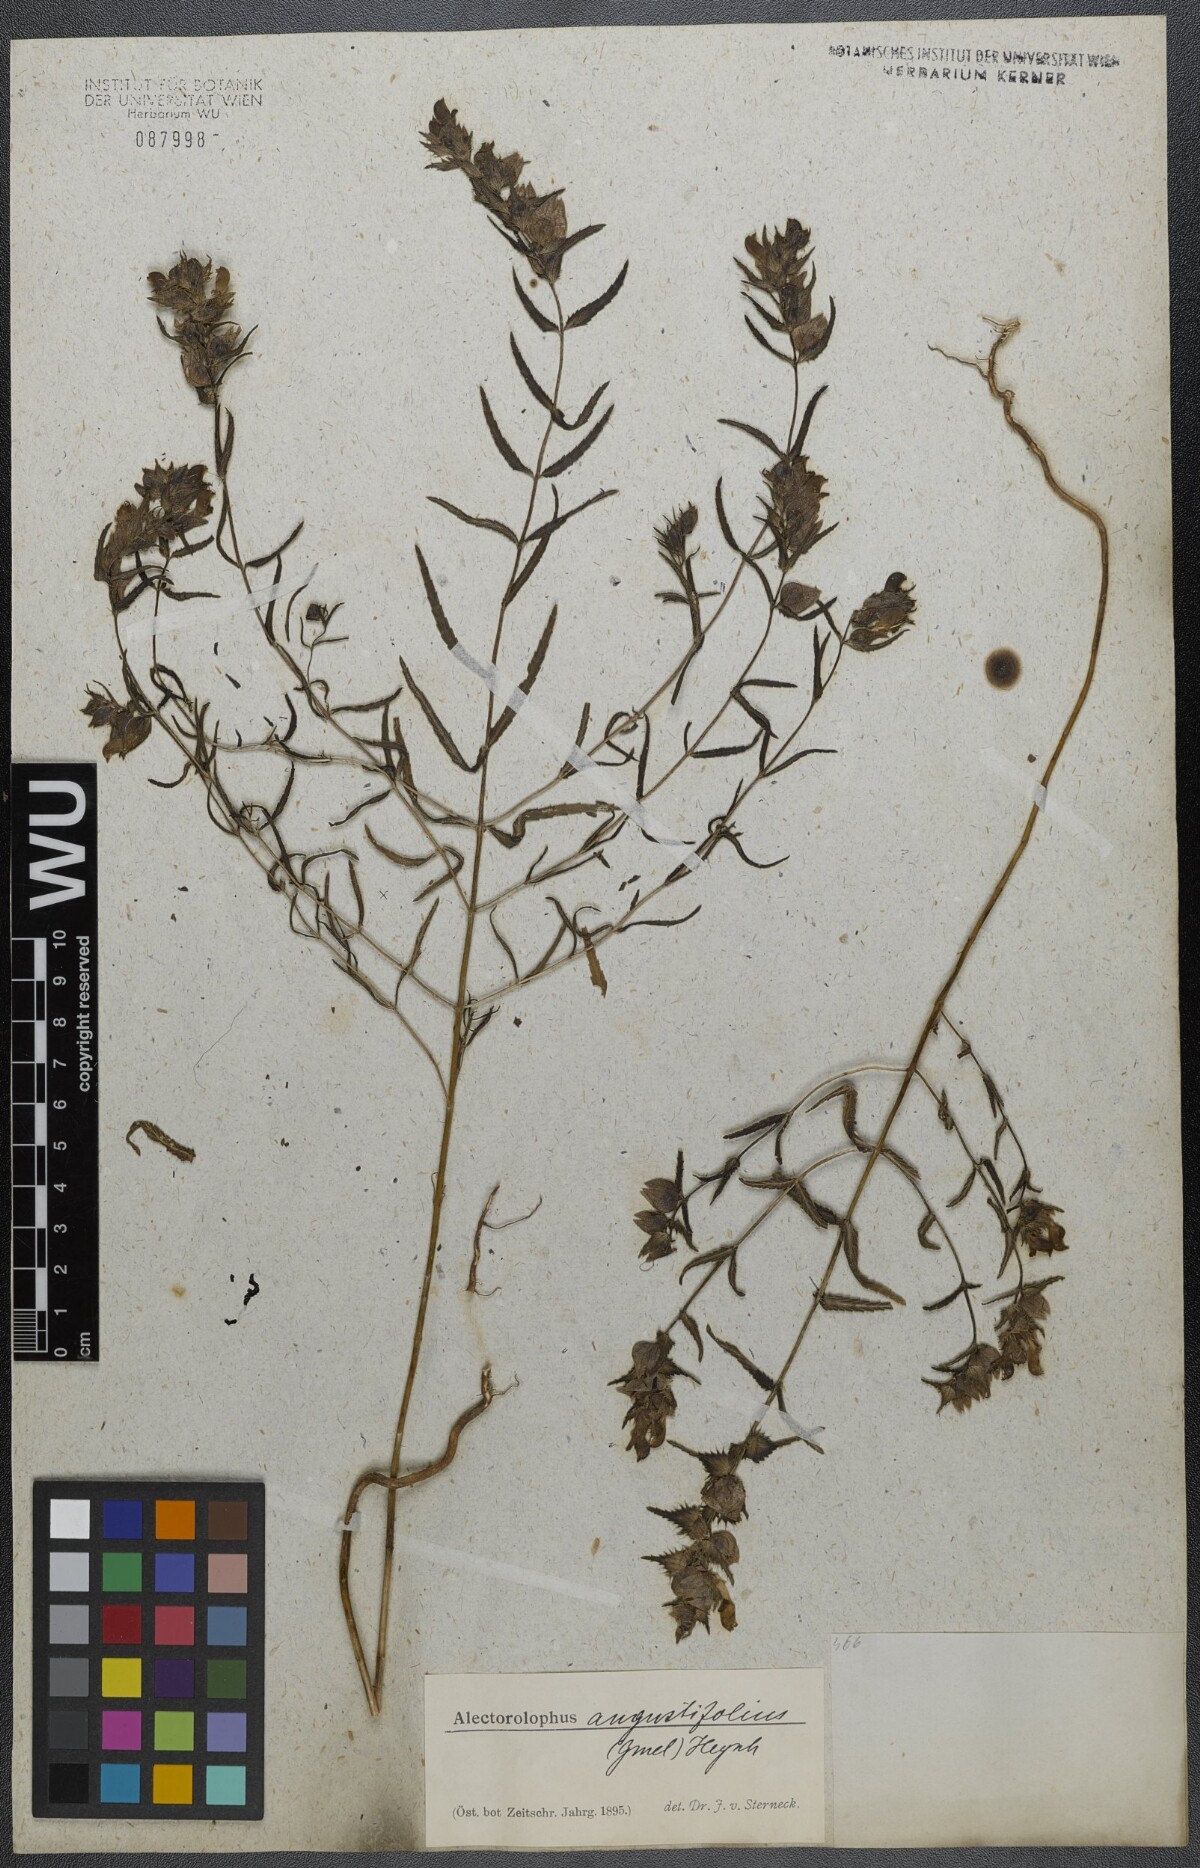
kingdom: Plantae
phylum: Tracheophyta
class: Magnoliopsida
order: Lamiales
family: Orobanchaceae
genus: Rhinanthus
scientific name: Rhinanthus
